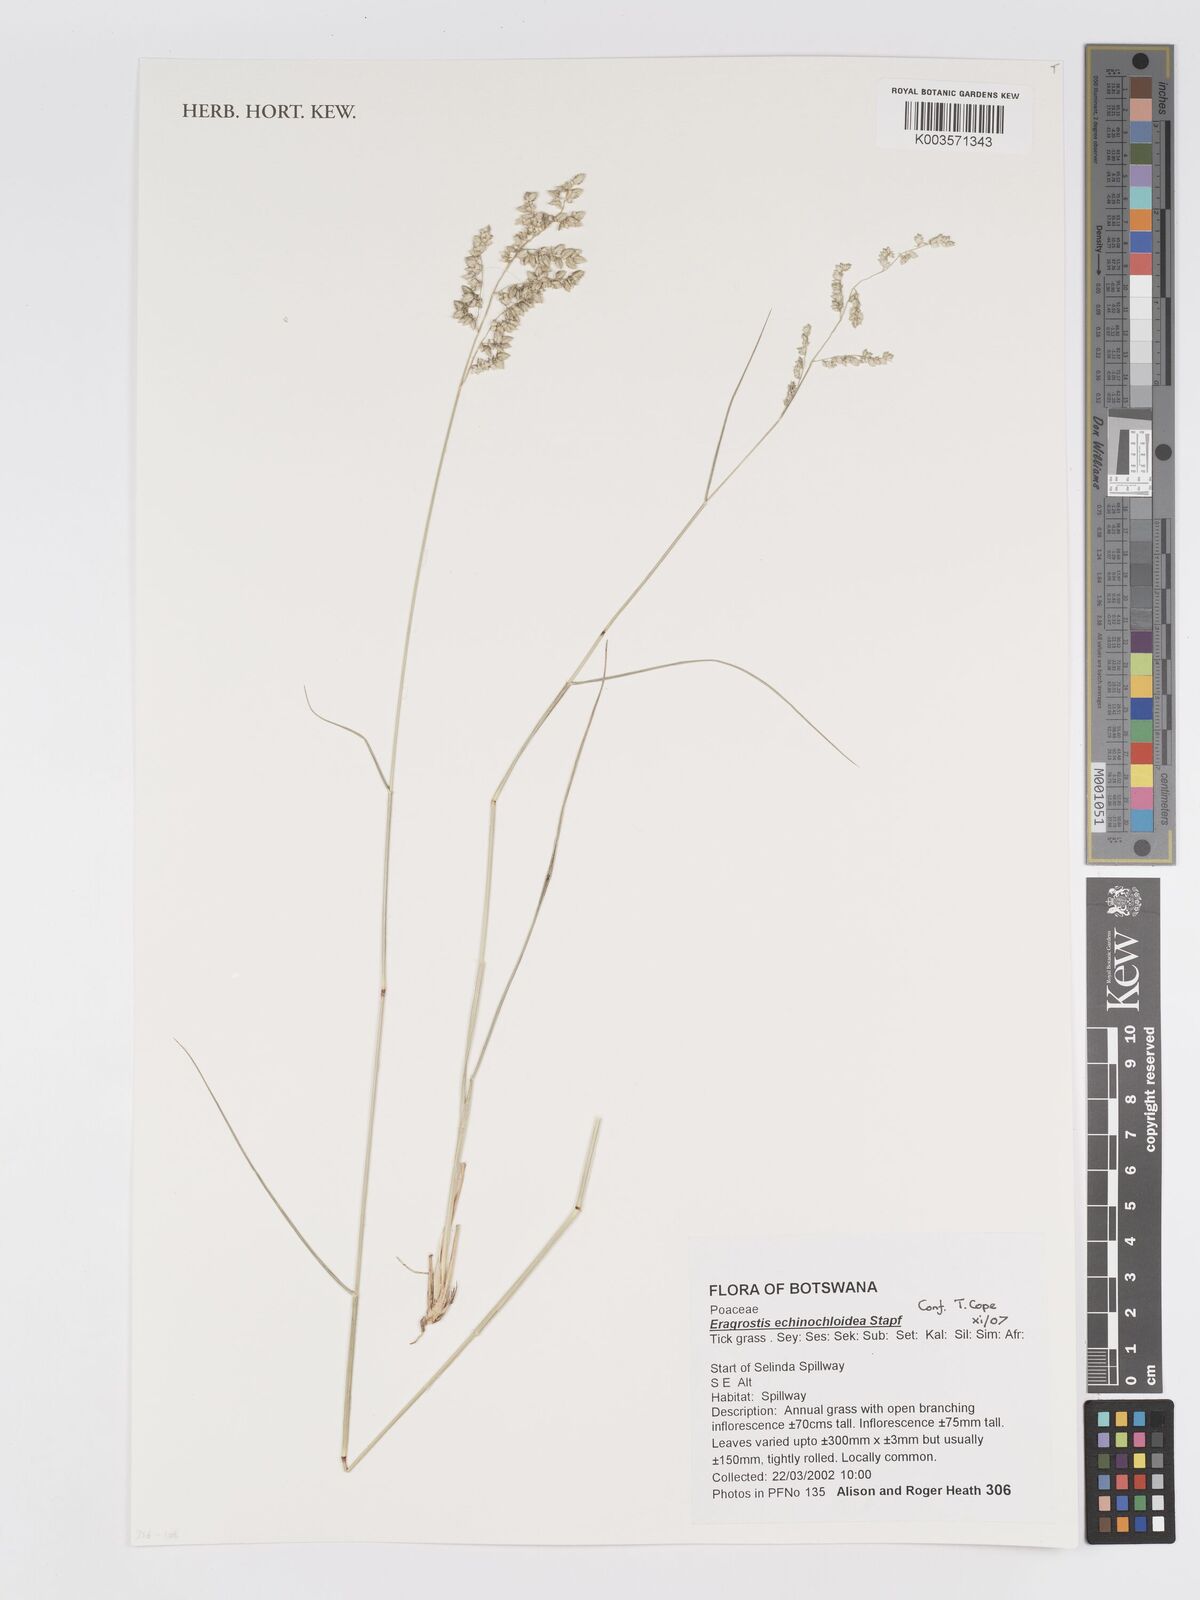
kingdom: Plantae
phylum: Tracheophyta
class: Liliopsida
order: Poales
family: Poaceae
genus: Eragrostis
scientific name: Eragrostis echinochloidea
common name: African lovegrass
